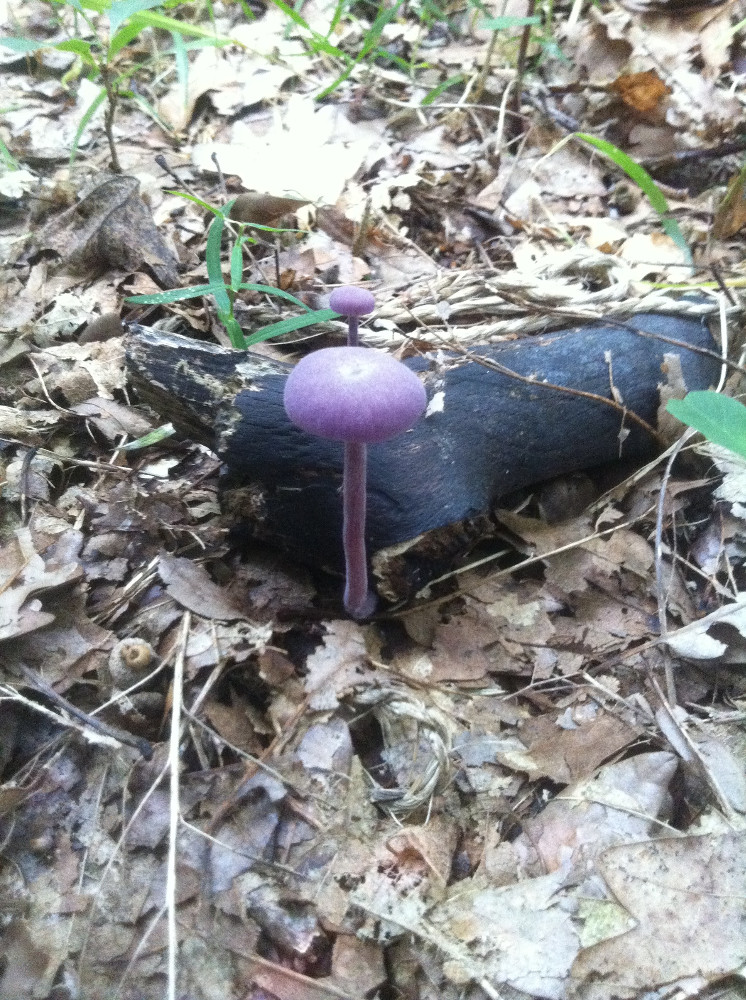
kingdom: Fungi
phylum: Basidiomycota
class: Agaricomycetes
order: Agaricales
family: Hydnangiaceae
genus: Laccaria
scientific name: Laccaria amethystina
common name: violet ametysthat
